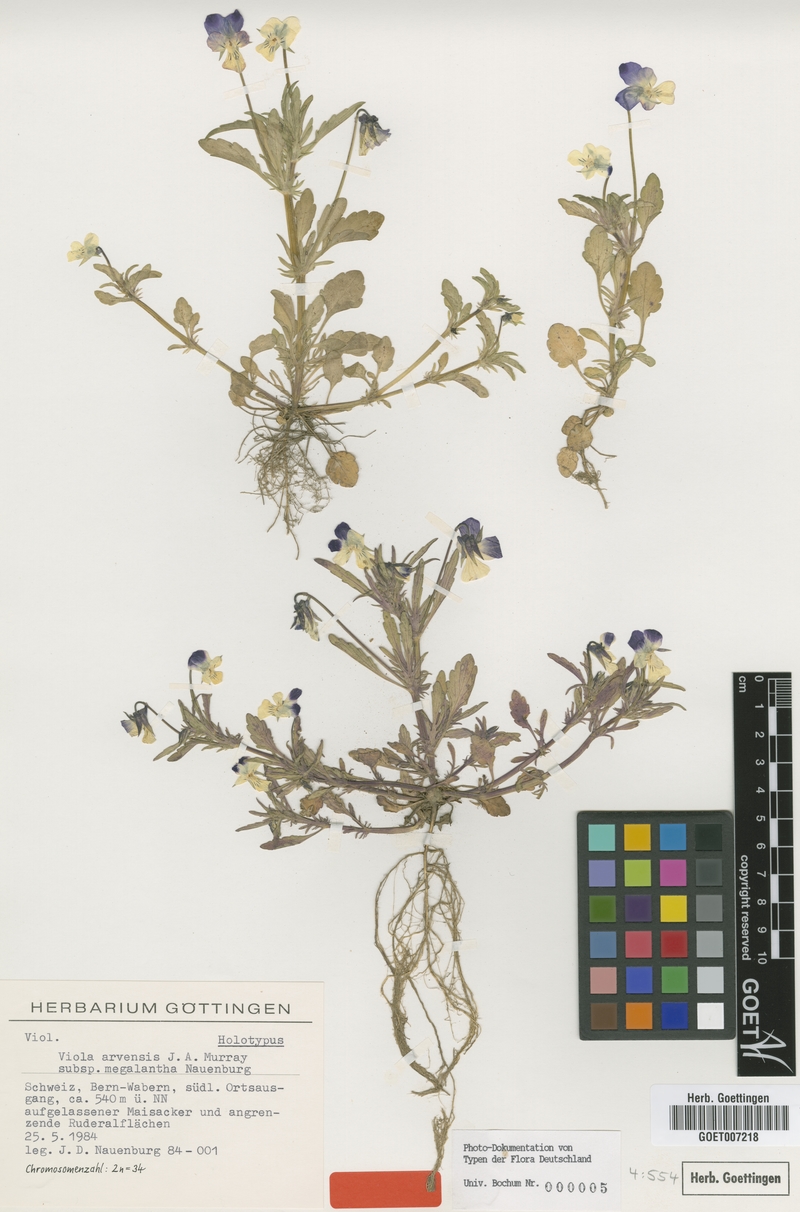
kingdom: Plantae
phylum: Tracheophyta
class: Magnoliopsida
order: Malpighiales
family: Violaceae
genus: Viola
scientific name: Viola arvensis
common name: Field pansy
